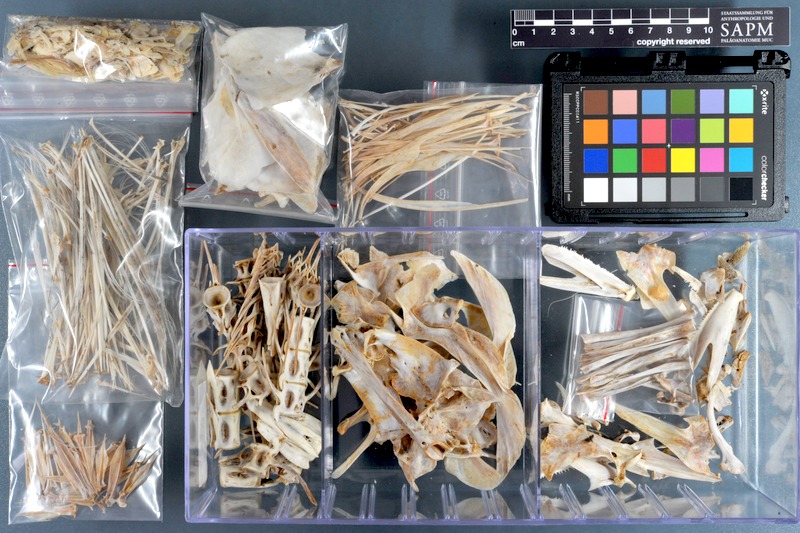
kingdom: Animalia
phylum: Chordata
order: Perciformes
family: Scombridae
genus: Thunnus
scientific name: Thunnus albacares
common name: Yellowfin tuna
